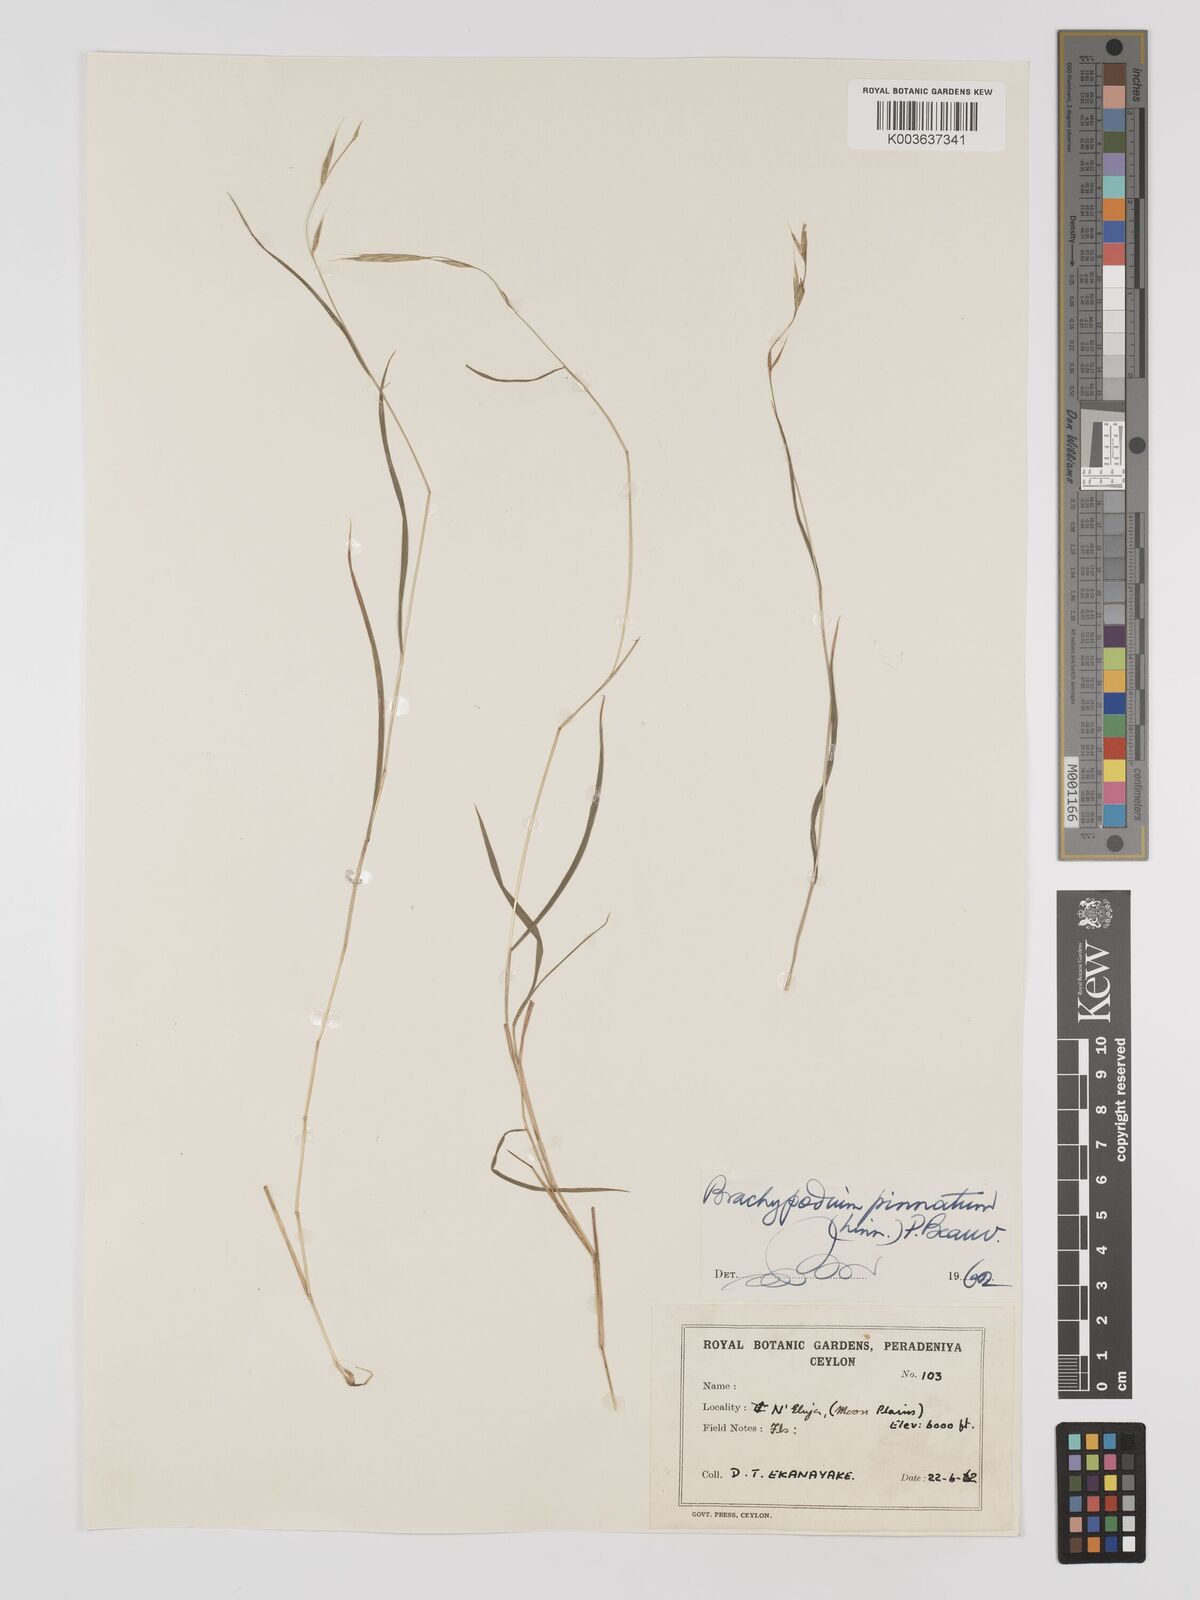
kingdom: Plantae
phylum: Tracheophyta
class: Liliopsida
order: Poales
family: Poaceae
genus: Brachypodium
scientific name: Brachypodium pinnatum
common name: Tor grass
